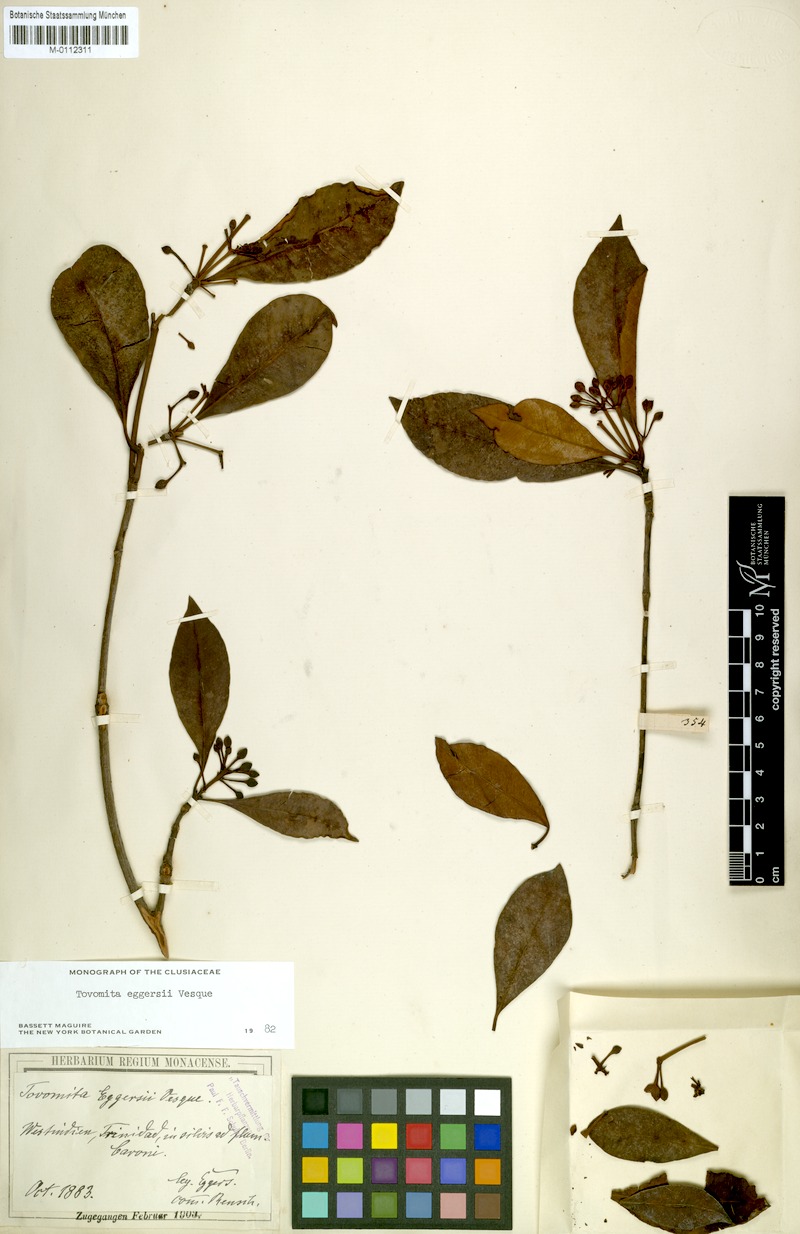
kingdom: Plantae
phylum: Tracheophyta
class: Magnoliopsida
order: Malpighiales
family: Clusiaceae
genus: Tovomita
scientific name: Tovomita eggersii
